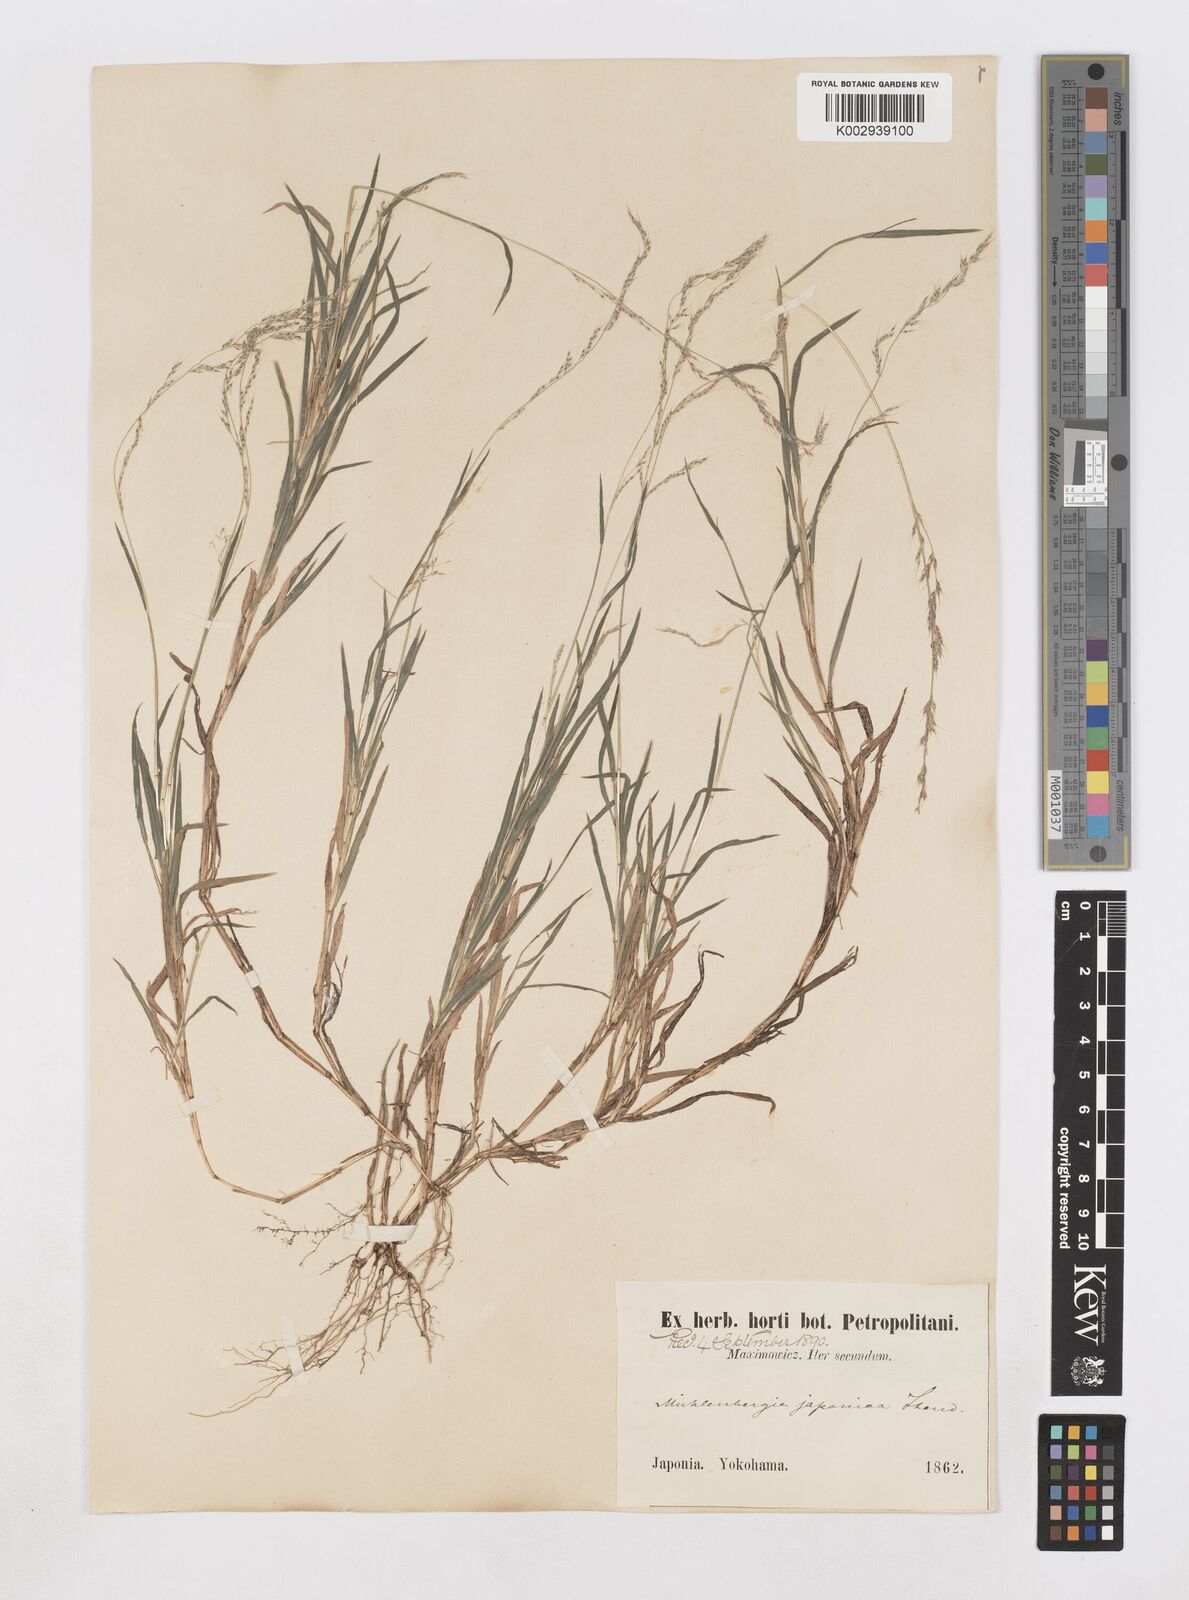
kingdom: Plantae
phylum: Tracheophyta
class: Liliopsida
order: Poales
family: Poaceae
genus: Muhlenbergia
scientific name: Muhlenbergia japonica
